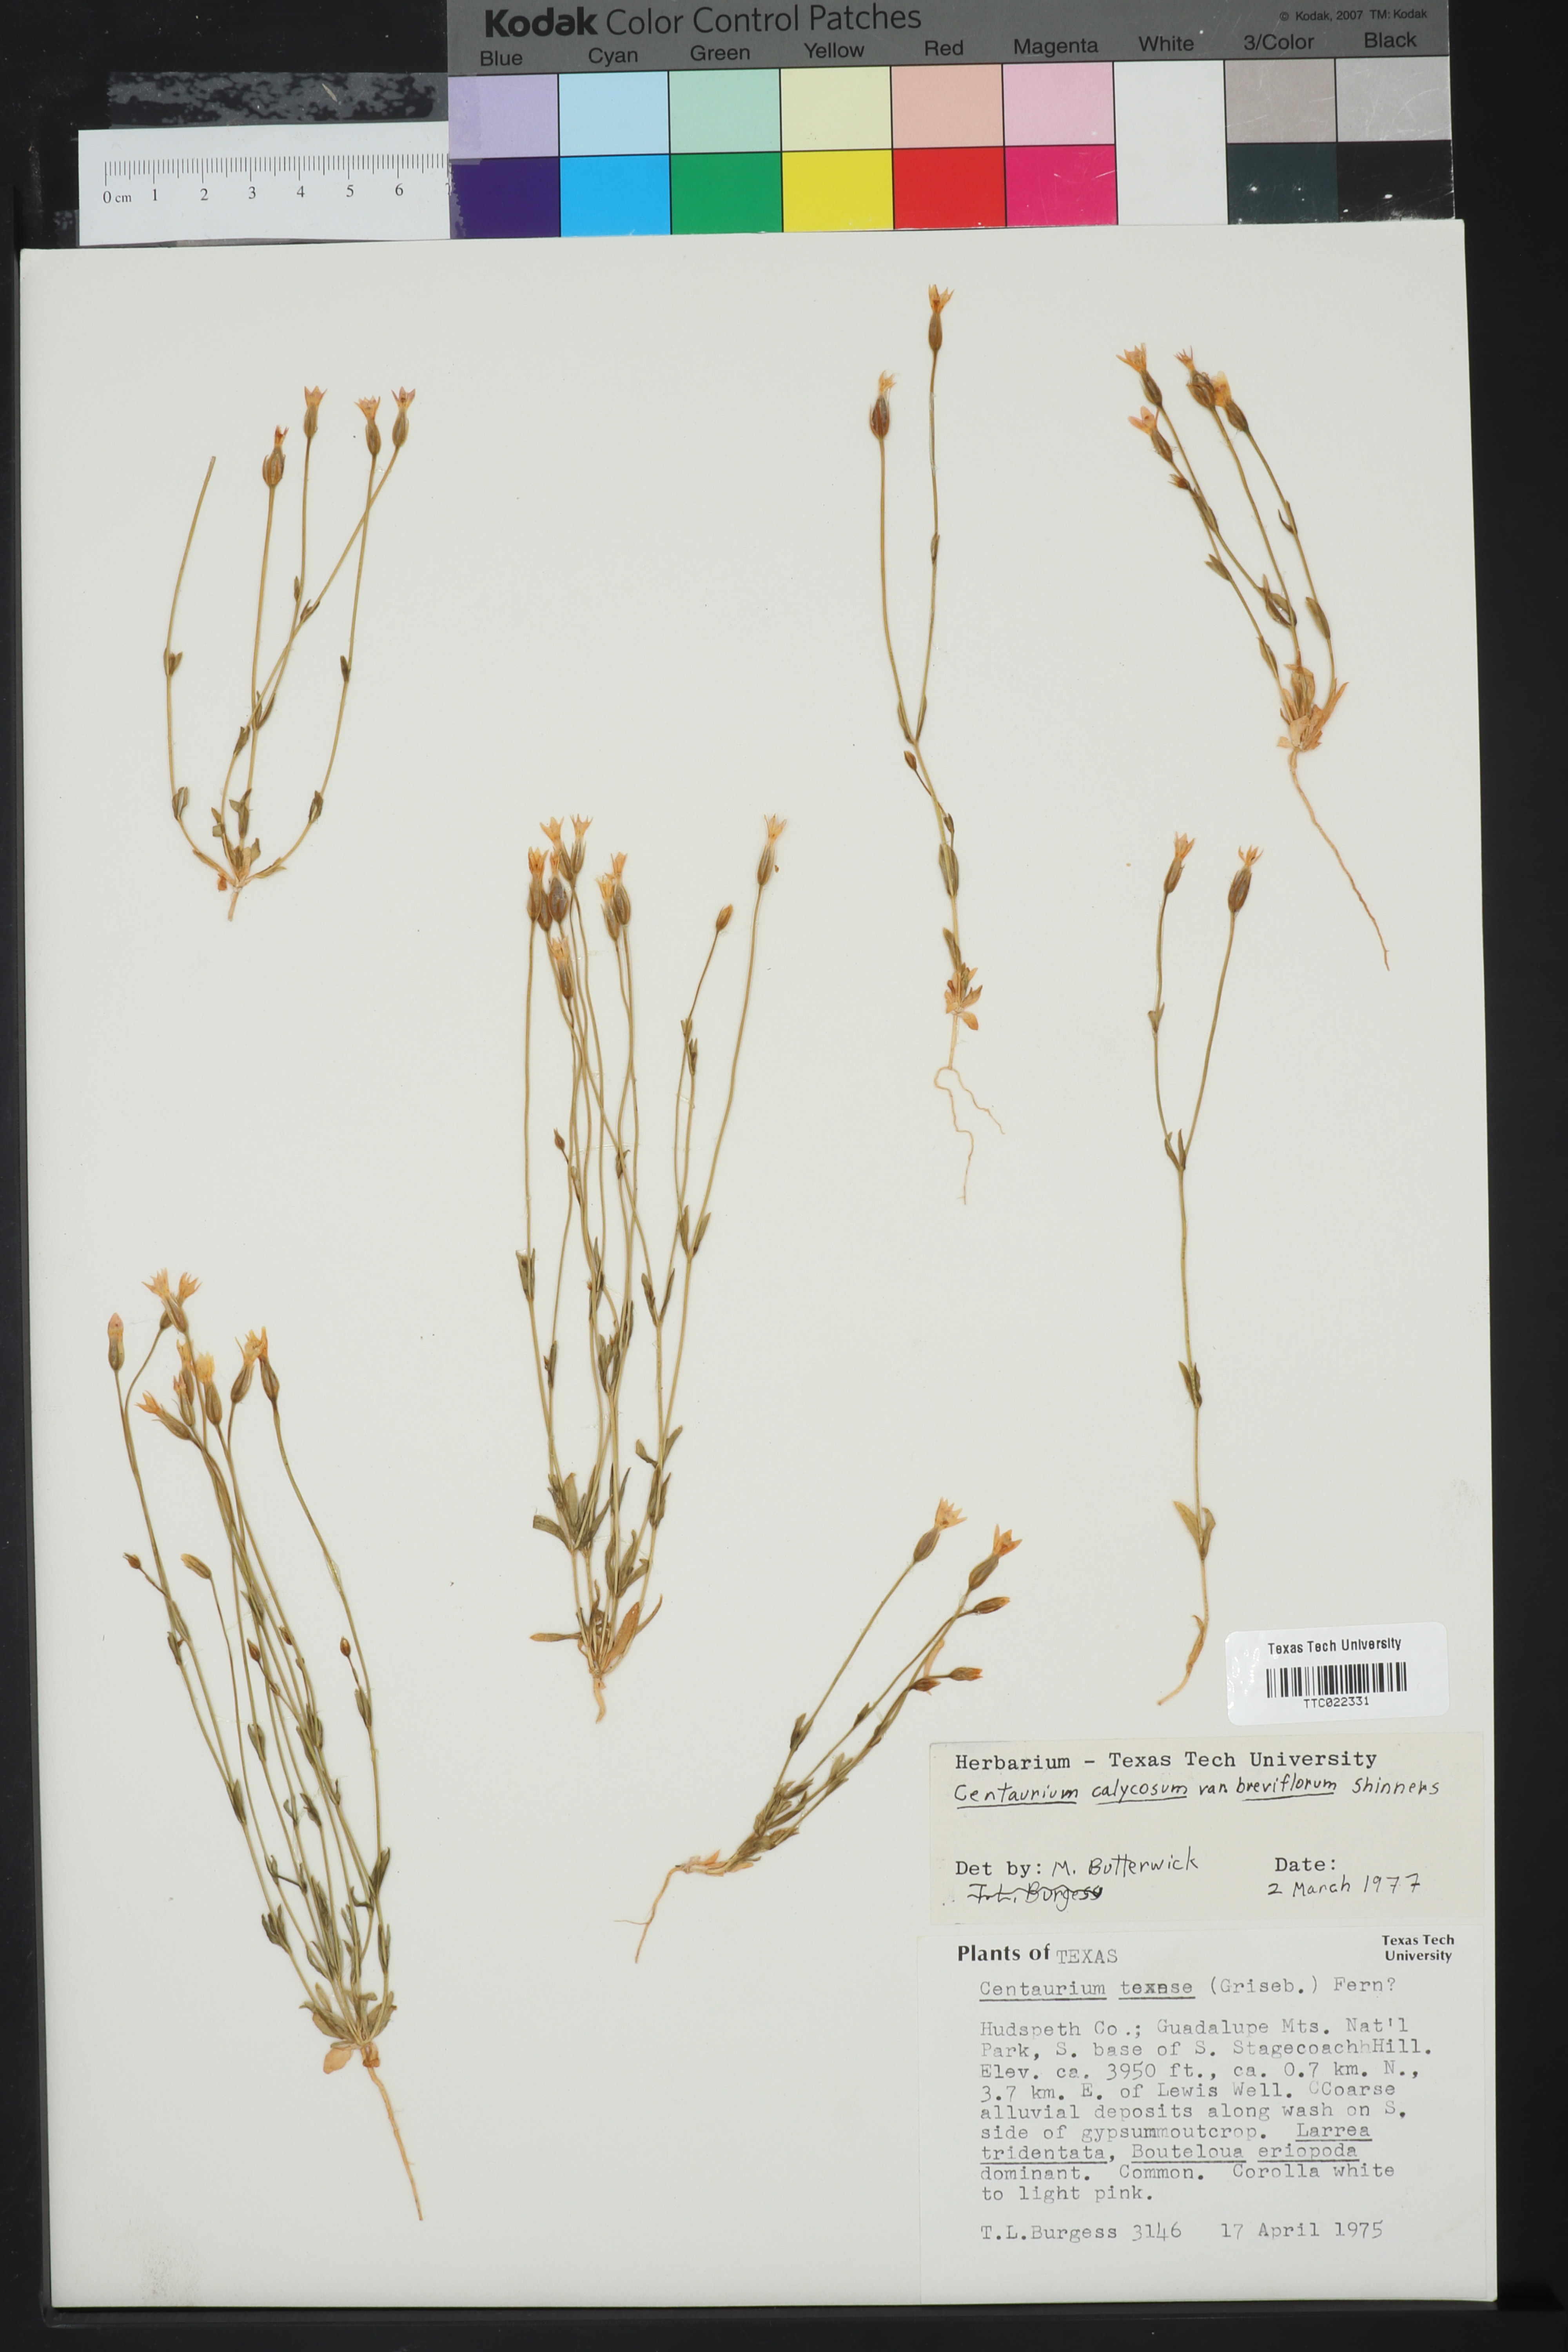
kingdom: Plantae
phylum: Tracheophyta
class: Magnoliopsida
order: Gentianales
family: Gentianaceae
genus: Zeltnera
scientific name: Zeltnera texensis
